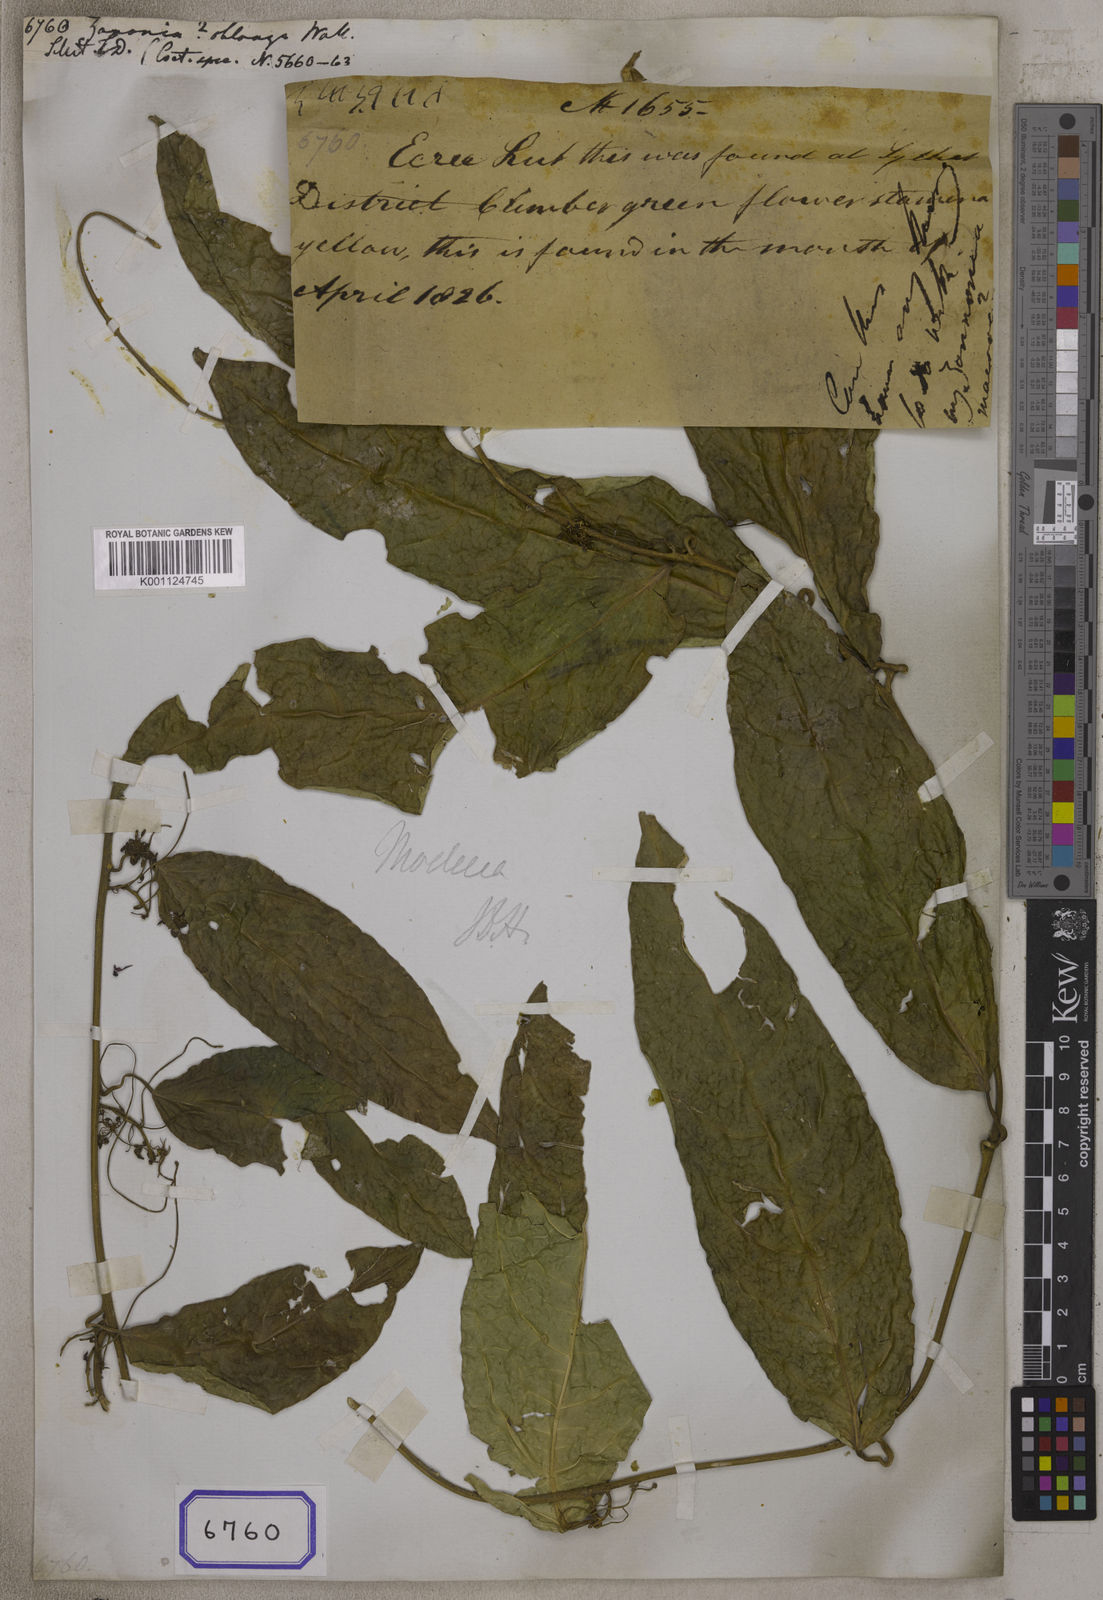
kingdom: Plantae
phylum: Tracheophyta
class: Magnoliopsida
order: Cucurbitales
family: Cucurbitaceae
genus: Zanonia
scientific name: Zanonia
